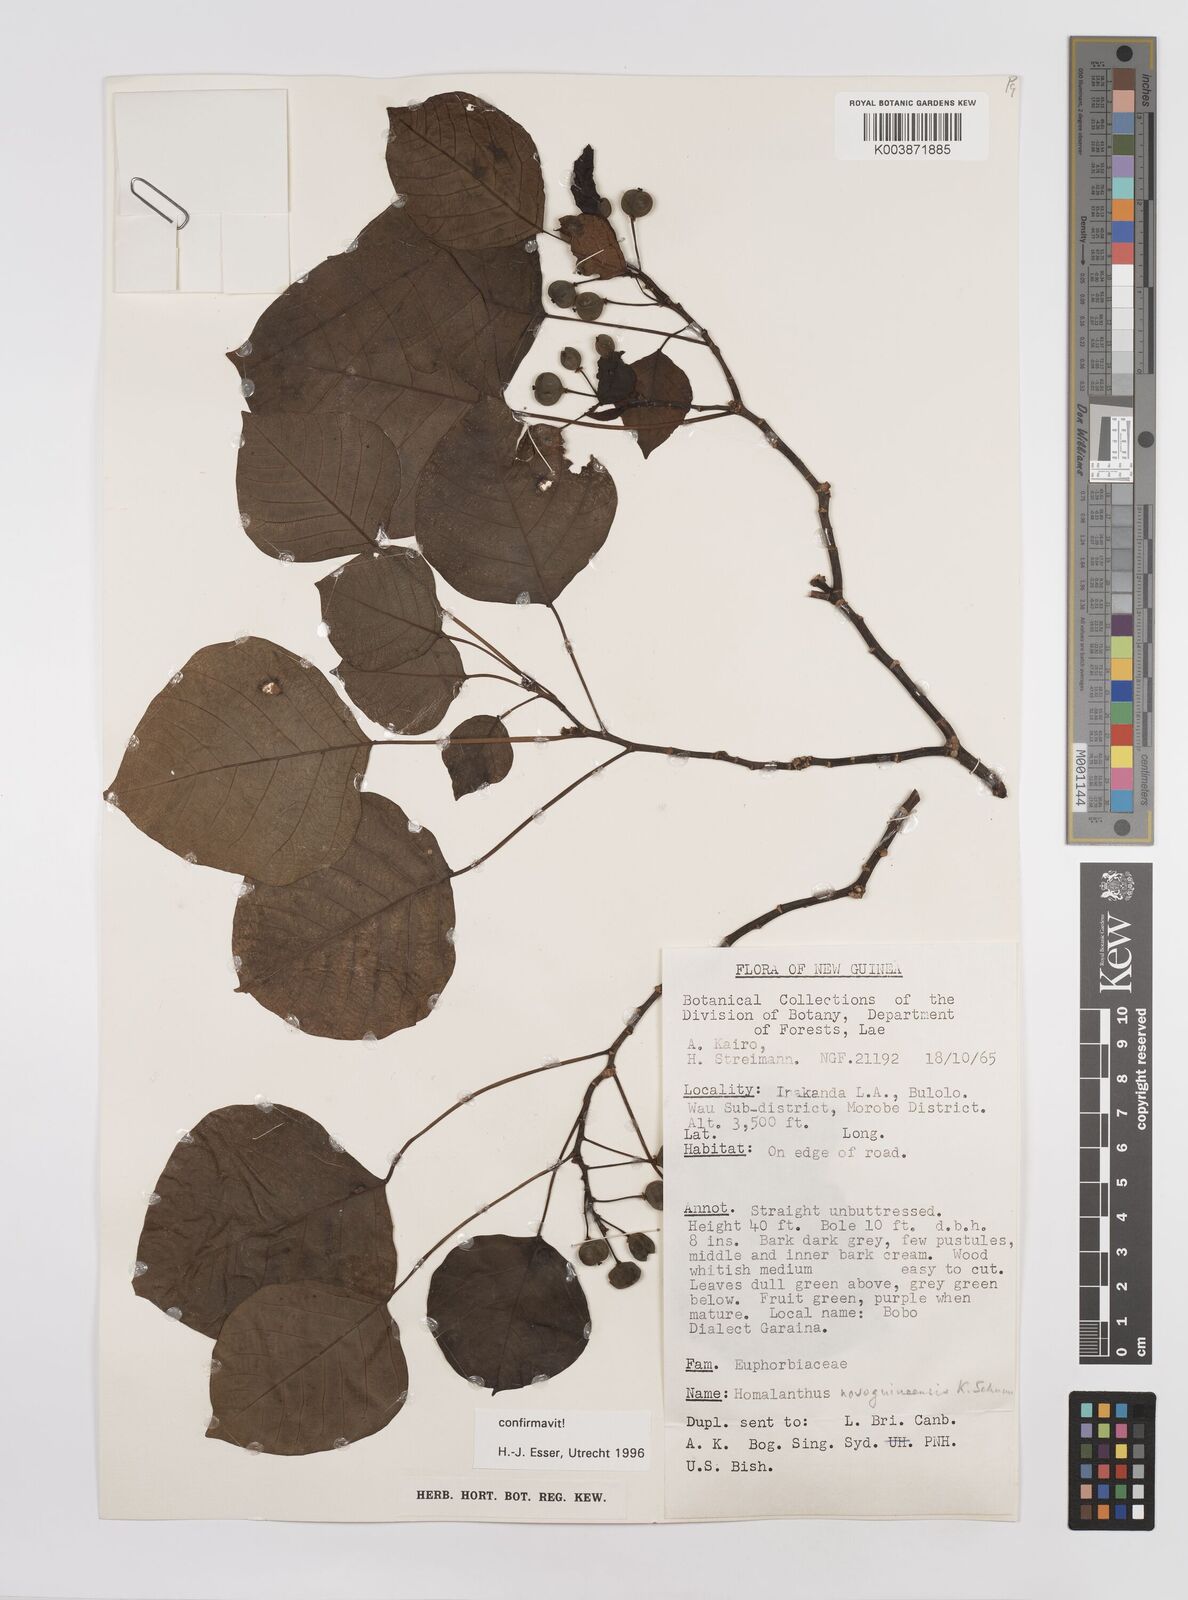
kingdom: Plantae
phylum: Tracheophyta
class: Magnoliopsida
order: Malpighiales
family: Euphorbiaceae
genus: Homalanthus
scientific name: Homalanthus novoguineensis
